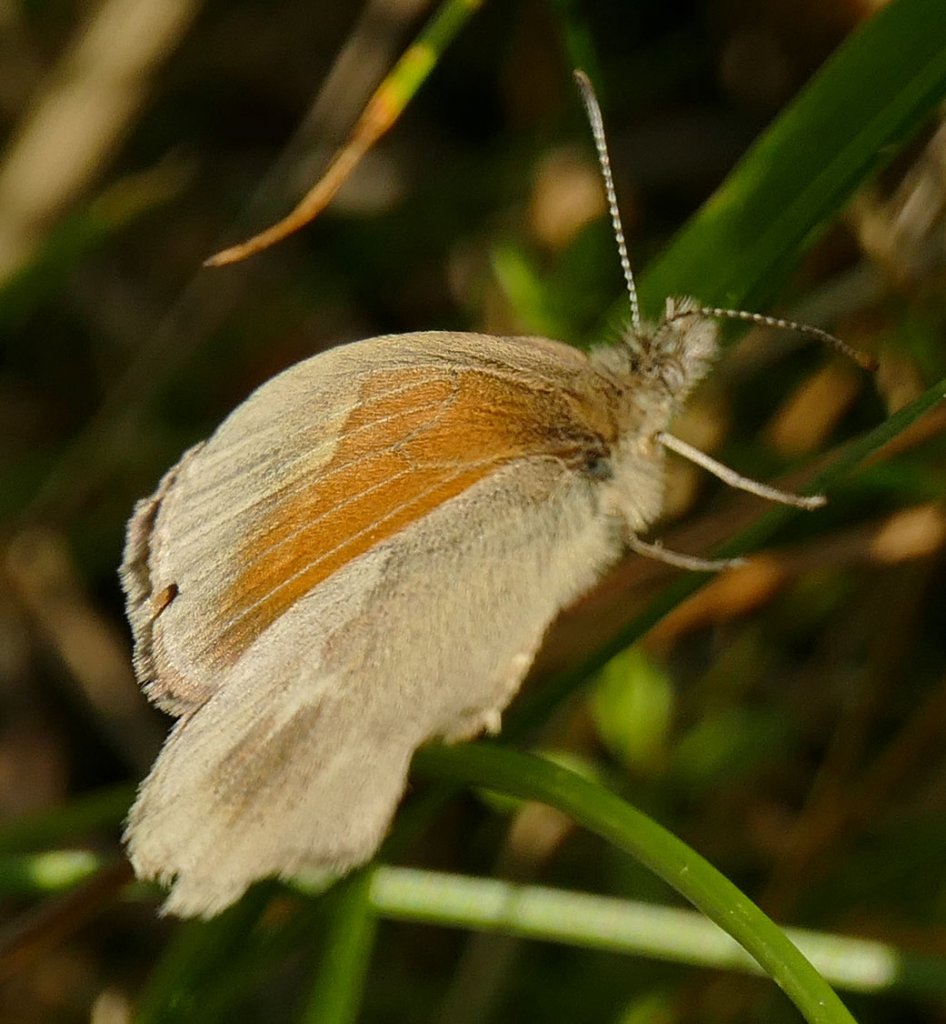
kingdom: Animalia
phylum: Arthropoda
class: Insecta
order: Lepidoptera
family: Nymphalidae
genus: Coenonympha
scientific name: Coenonympha tullia
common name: Large Heath
